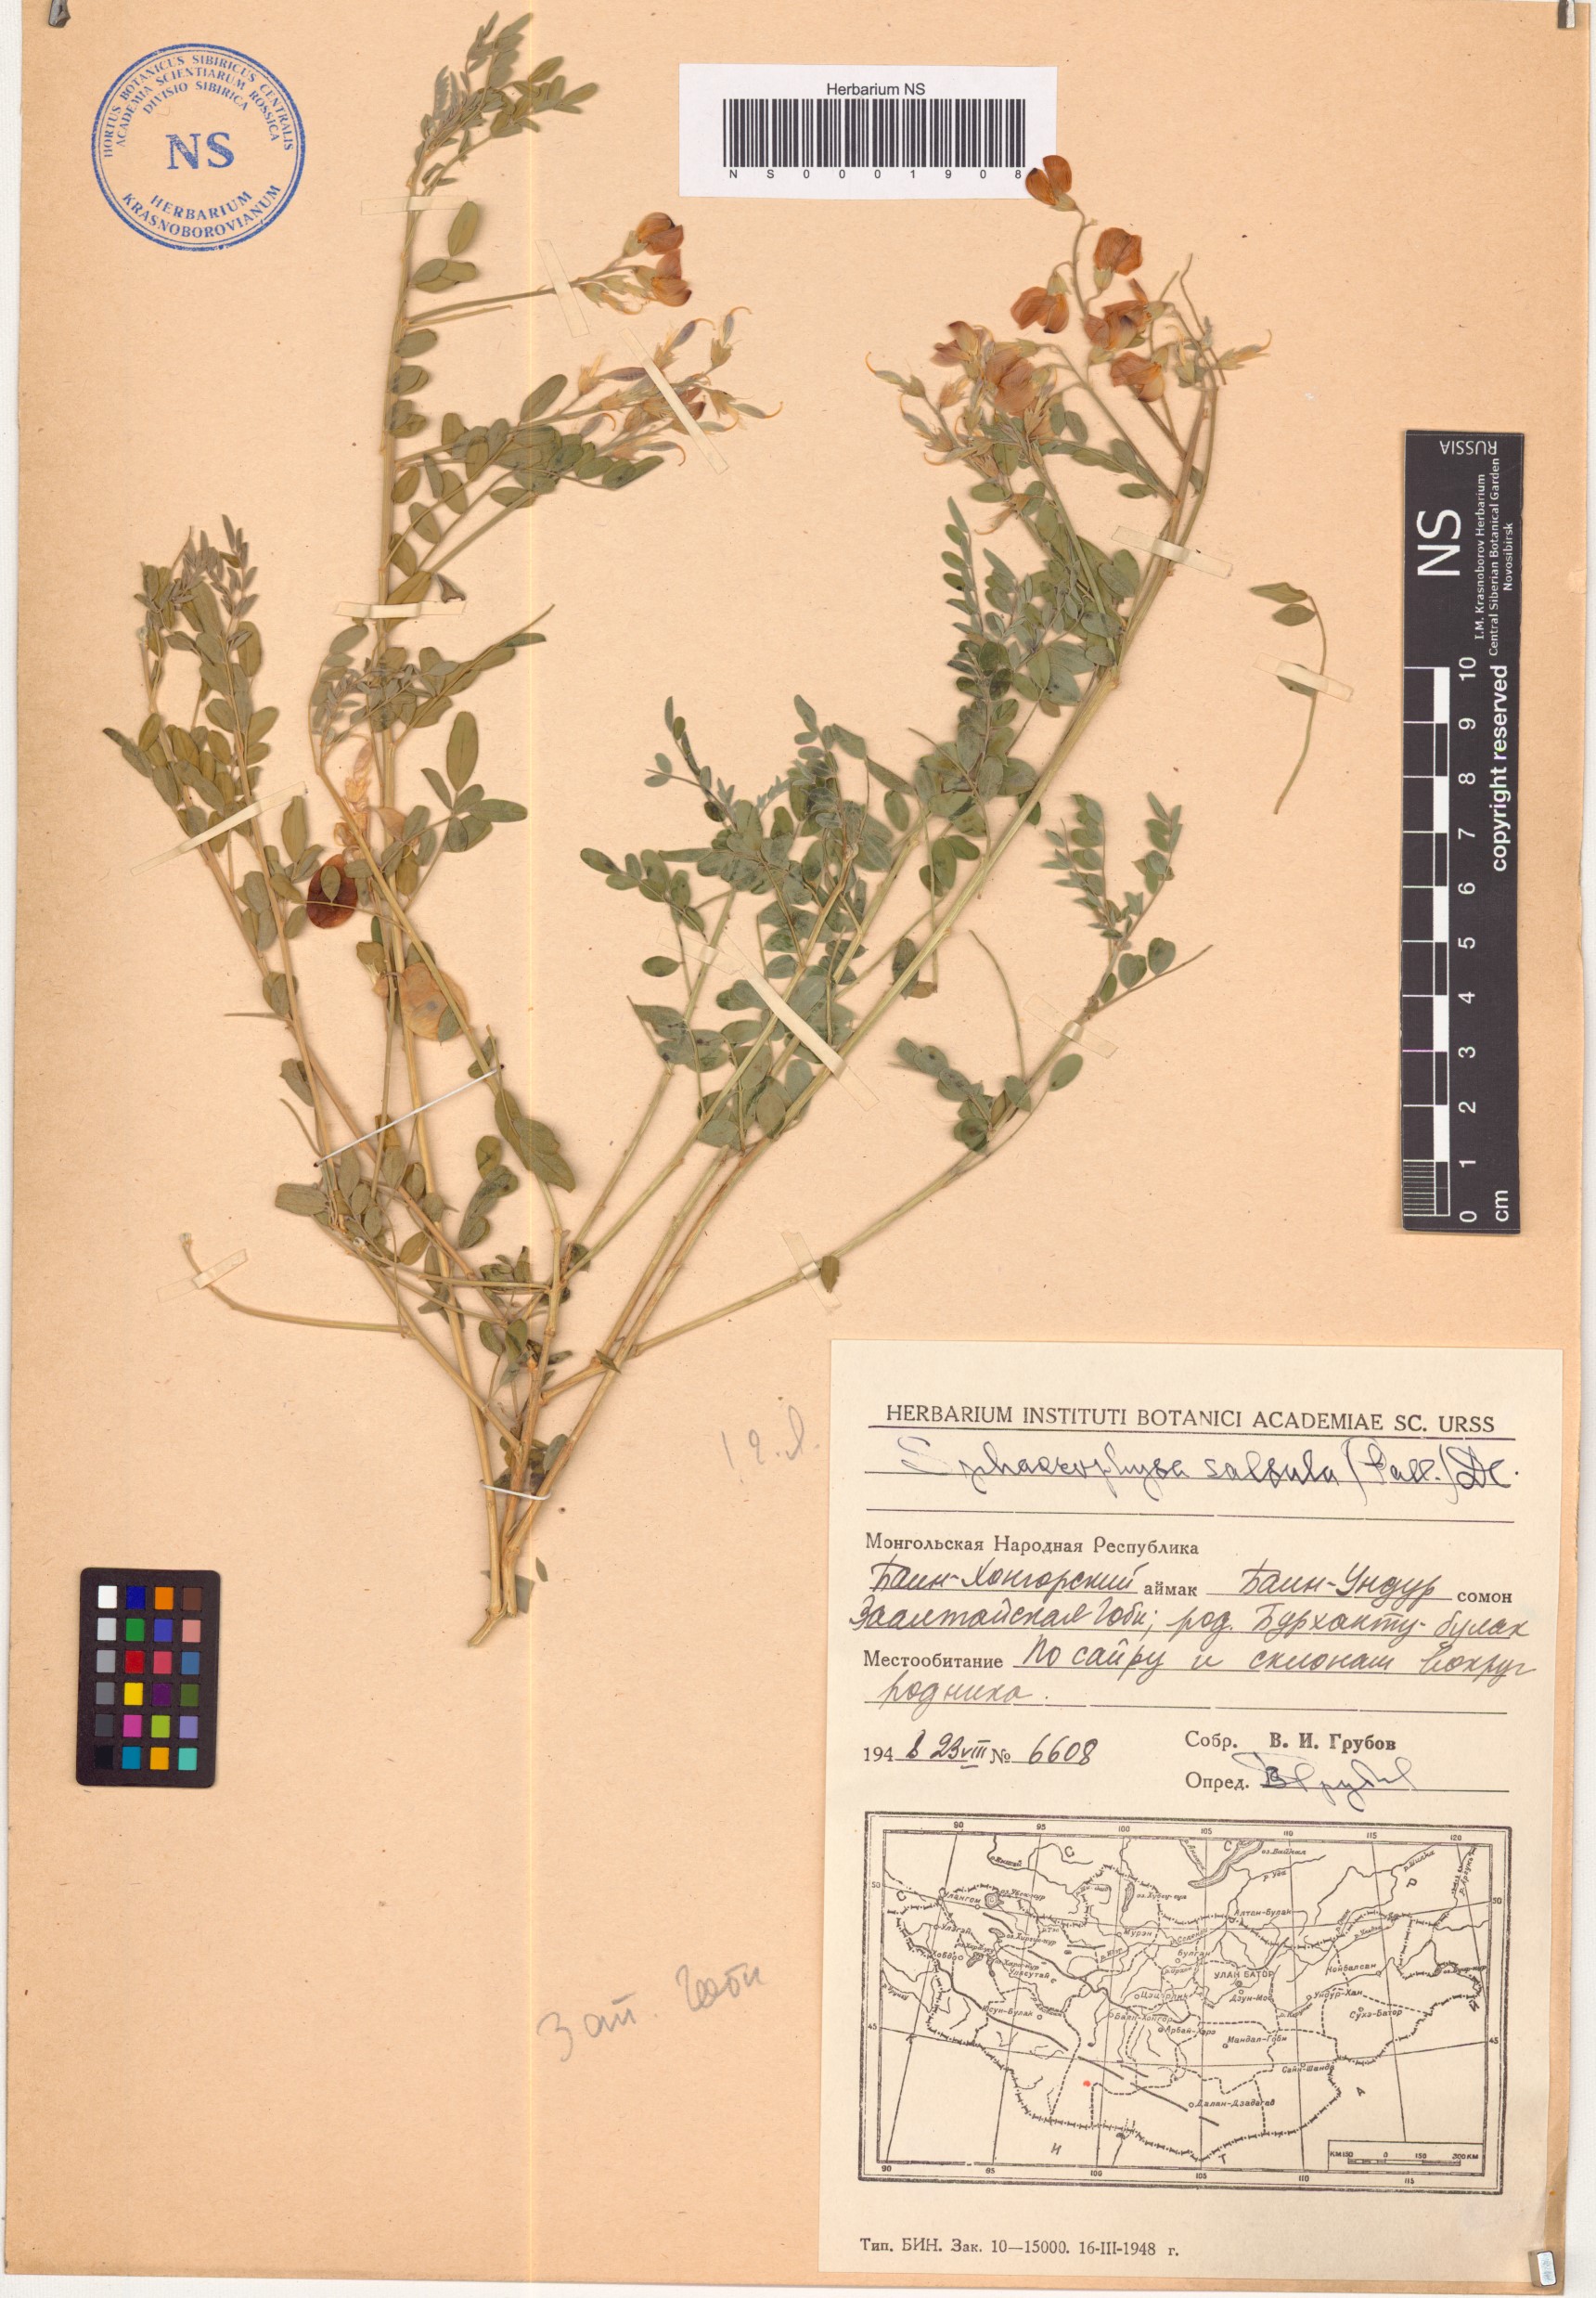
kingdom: Plantae
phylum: Tracheophyta
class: Magnoliopsida
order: Fabales
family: Fabaceae
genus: Sphaerophysa
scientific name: Sphaerophysa salsula
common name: Alkali swainsonpea
